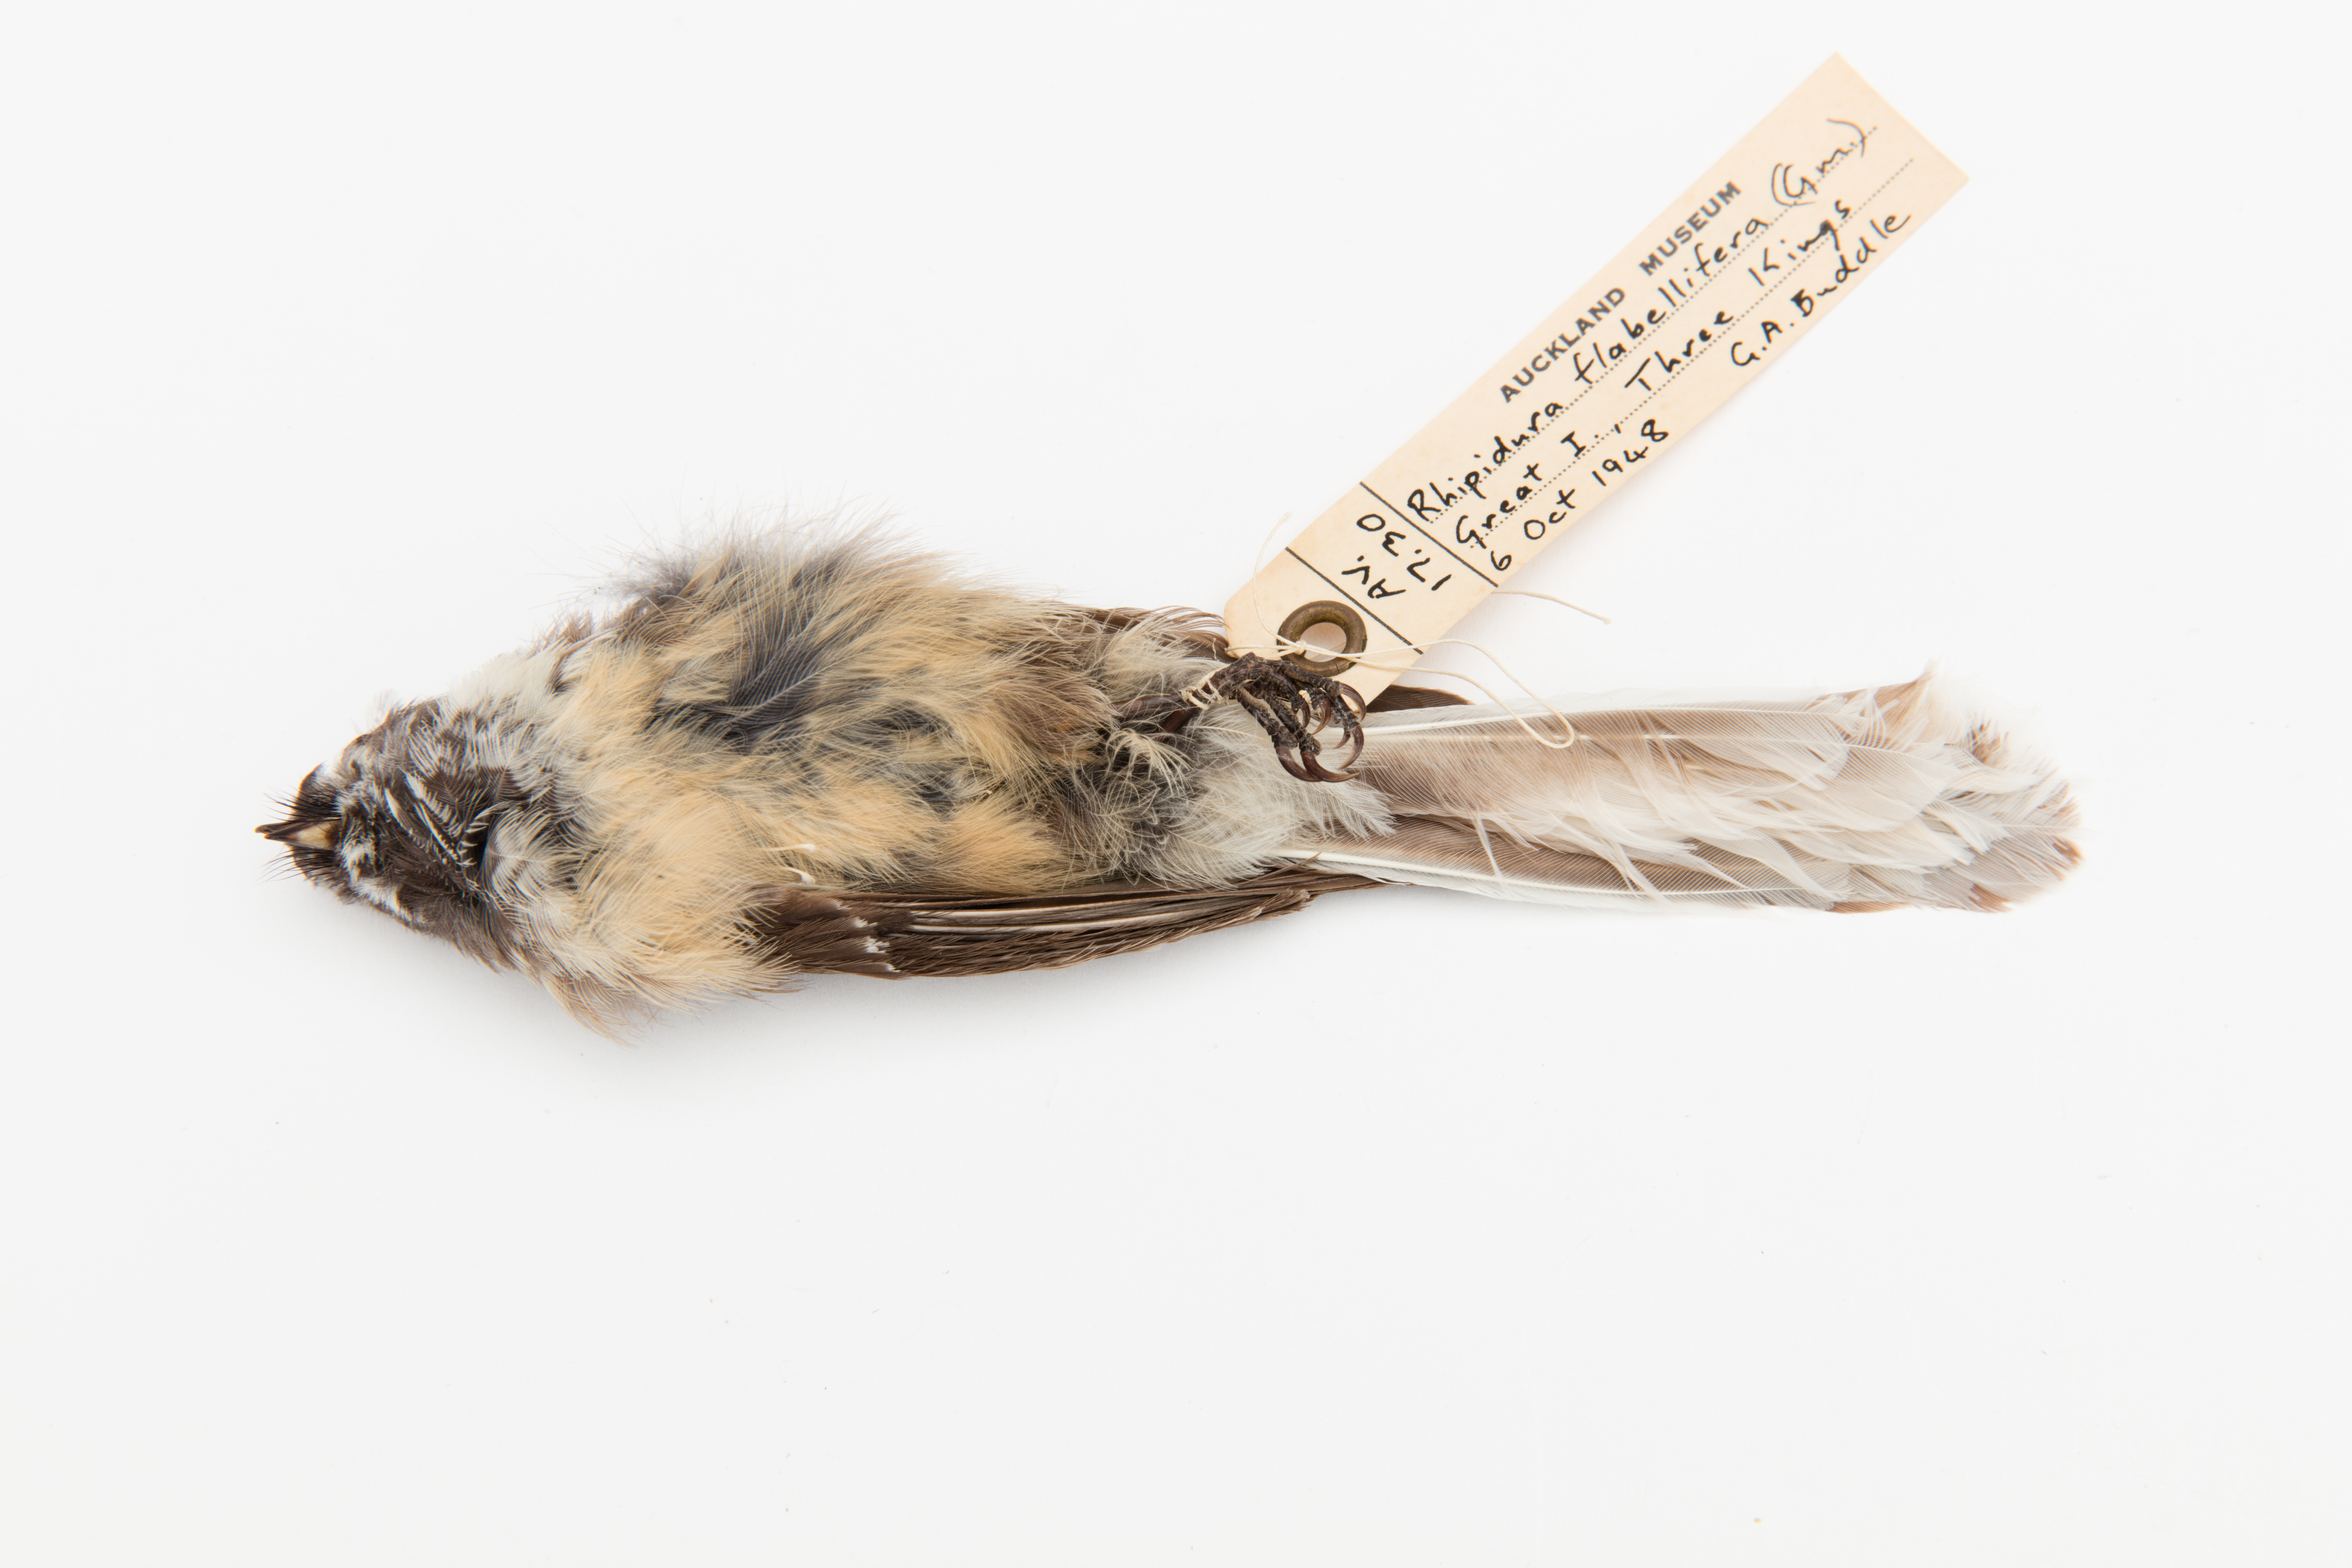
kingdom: Animalia
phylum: Chordata
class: Aves
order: Passeriformes
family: Rhipiduridae
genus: Rhipidura
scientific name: Rhipidura fuliginosa
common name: New zealand fantail
